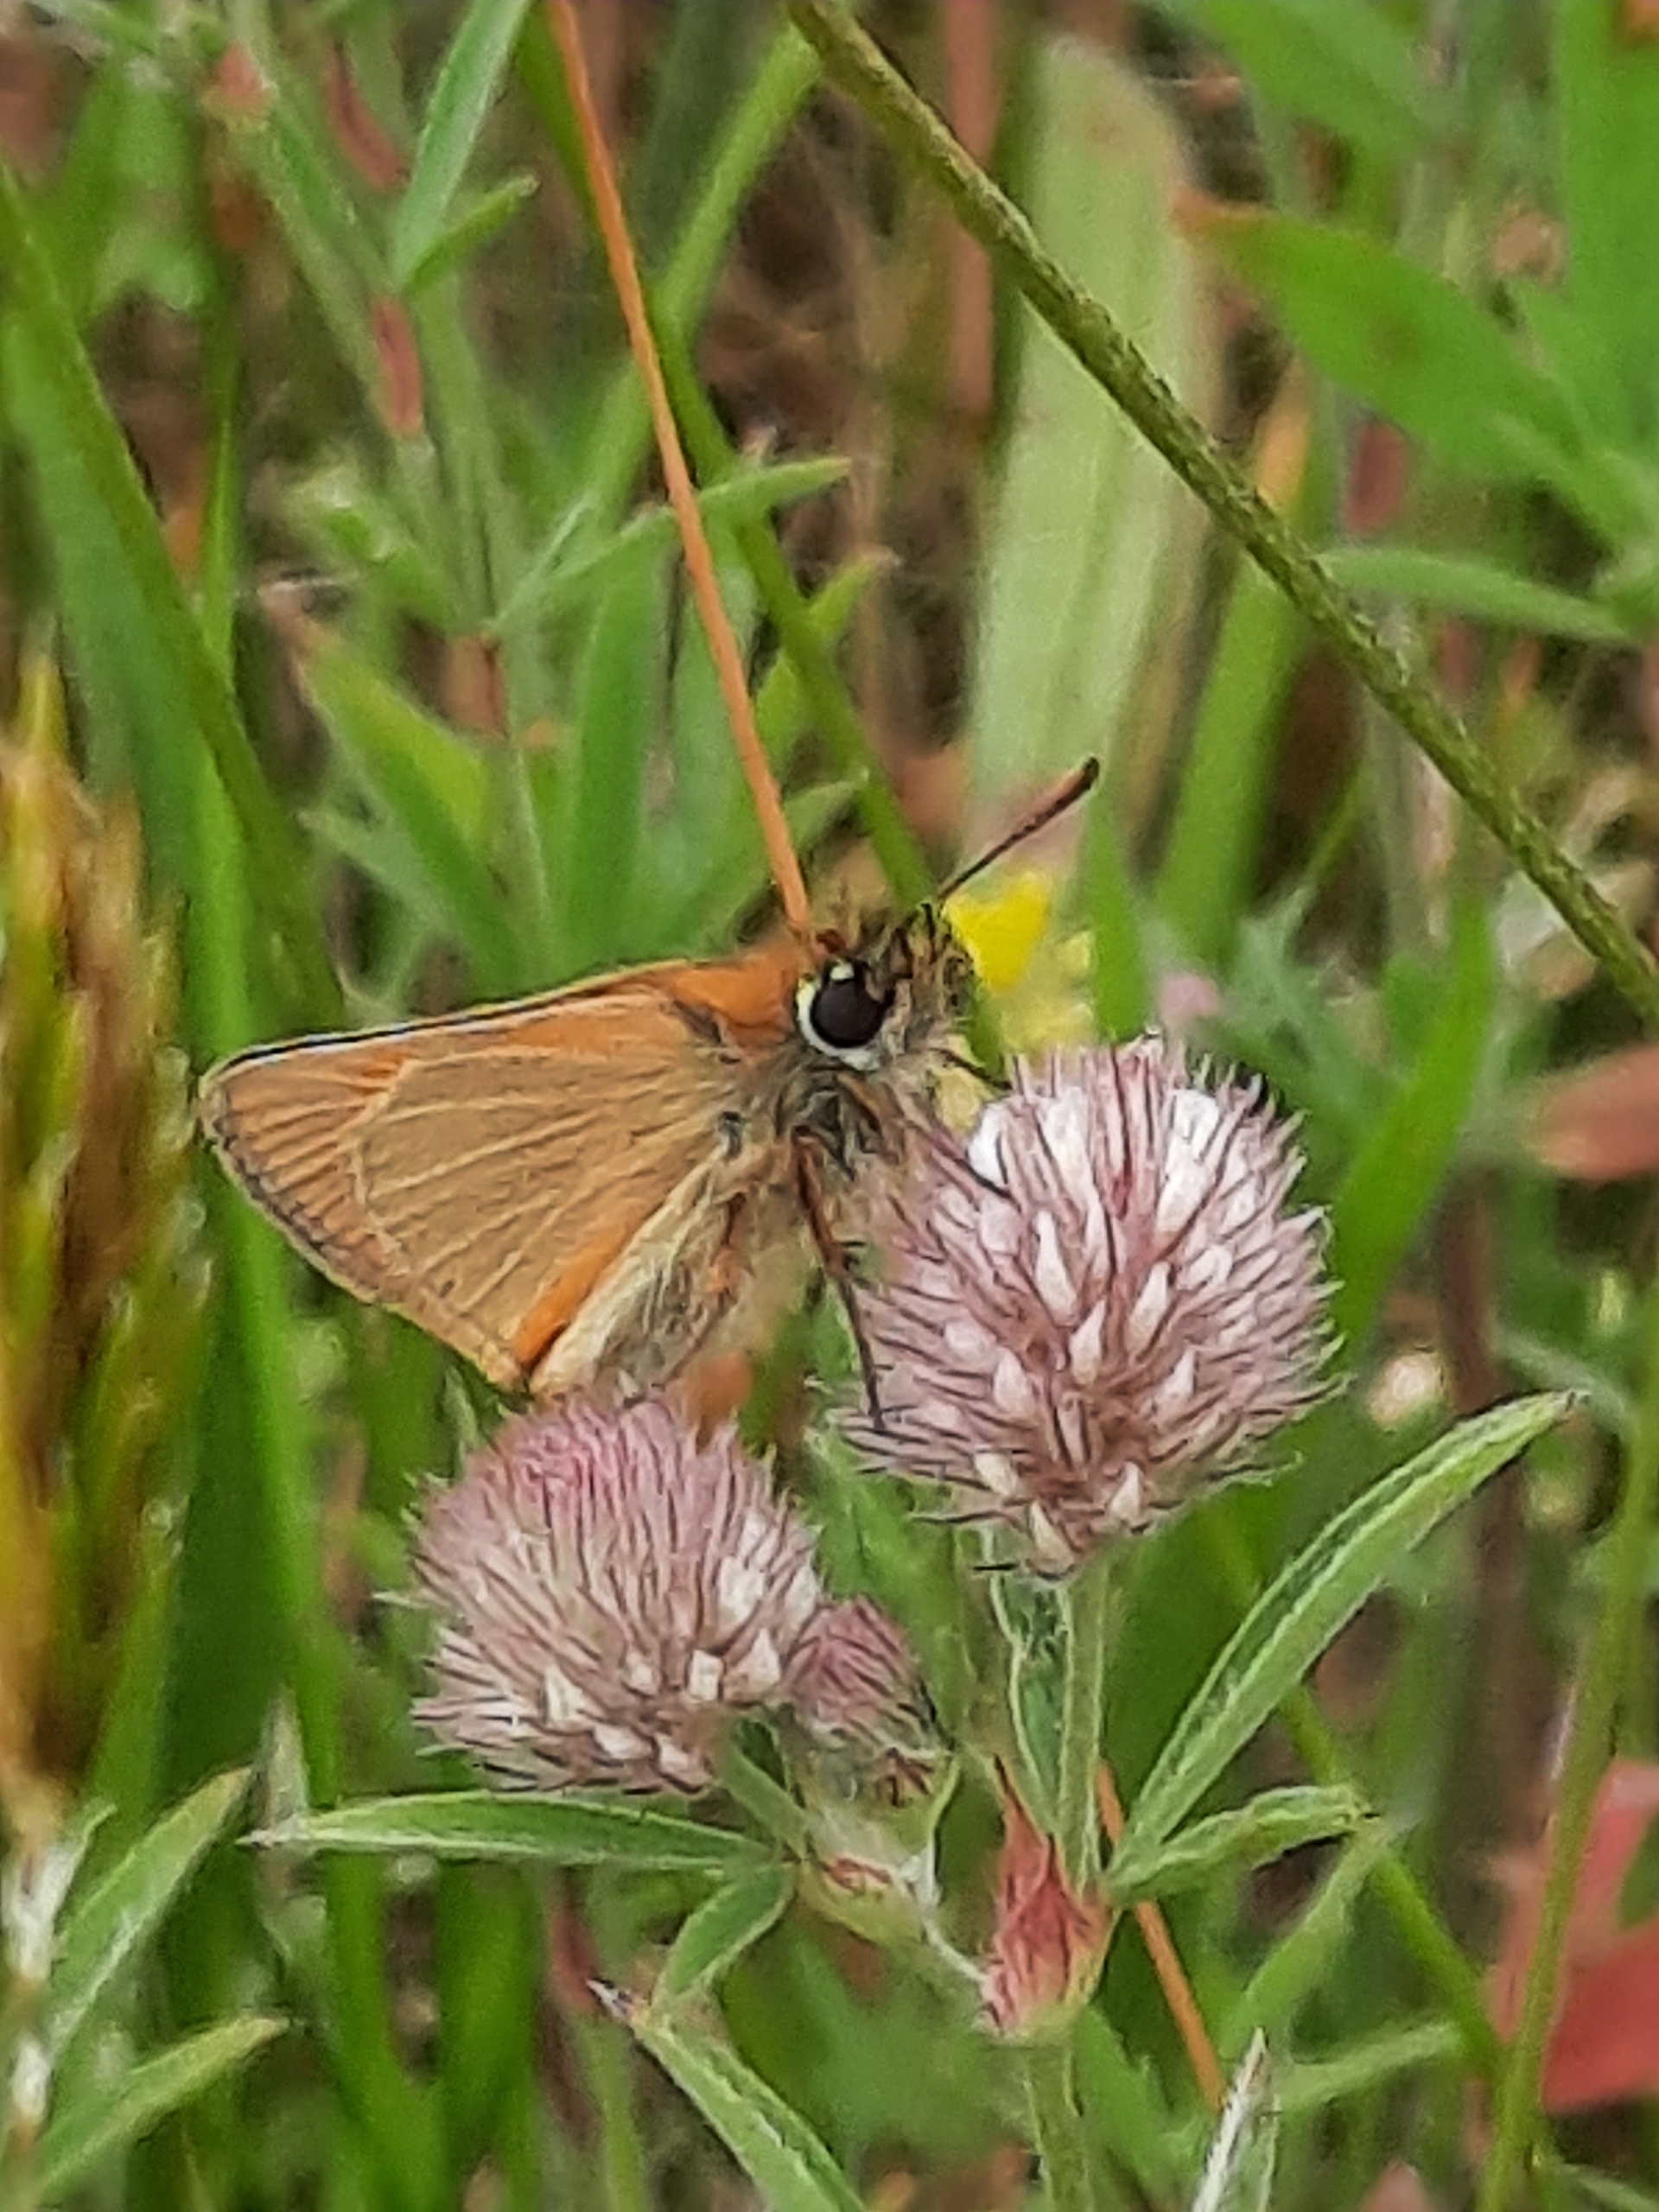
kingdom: Animalia
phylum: Arthropoda
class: Insecta
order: Lepidoptera
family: Hesperiidae
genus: Thymelicus
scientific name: Thymelicus lineola
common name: Stregbredpande
